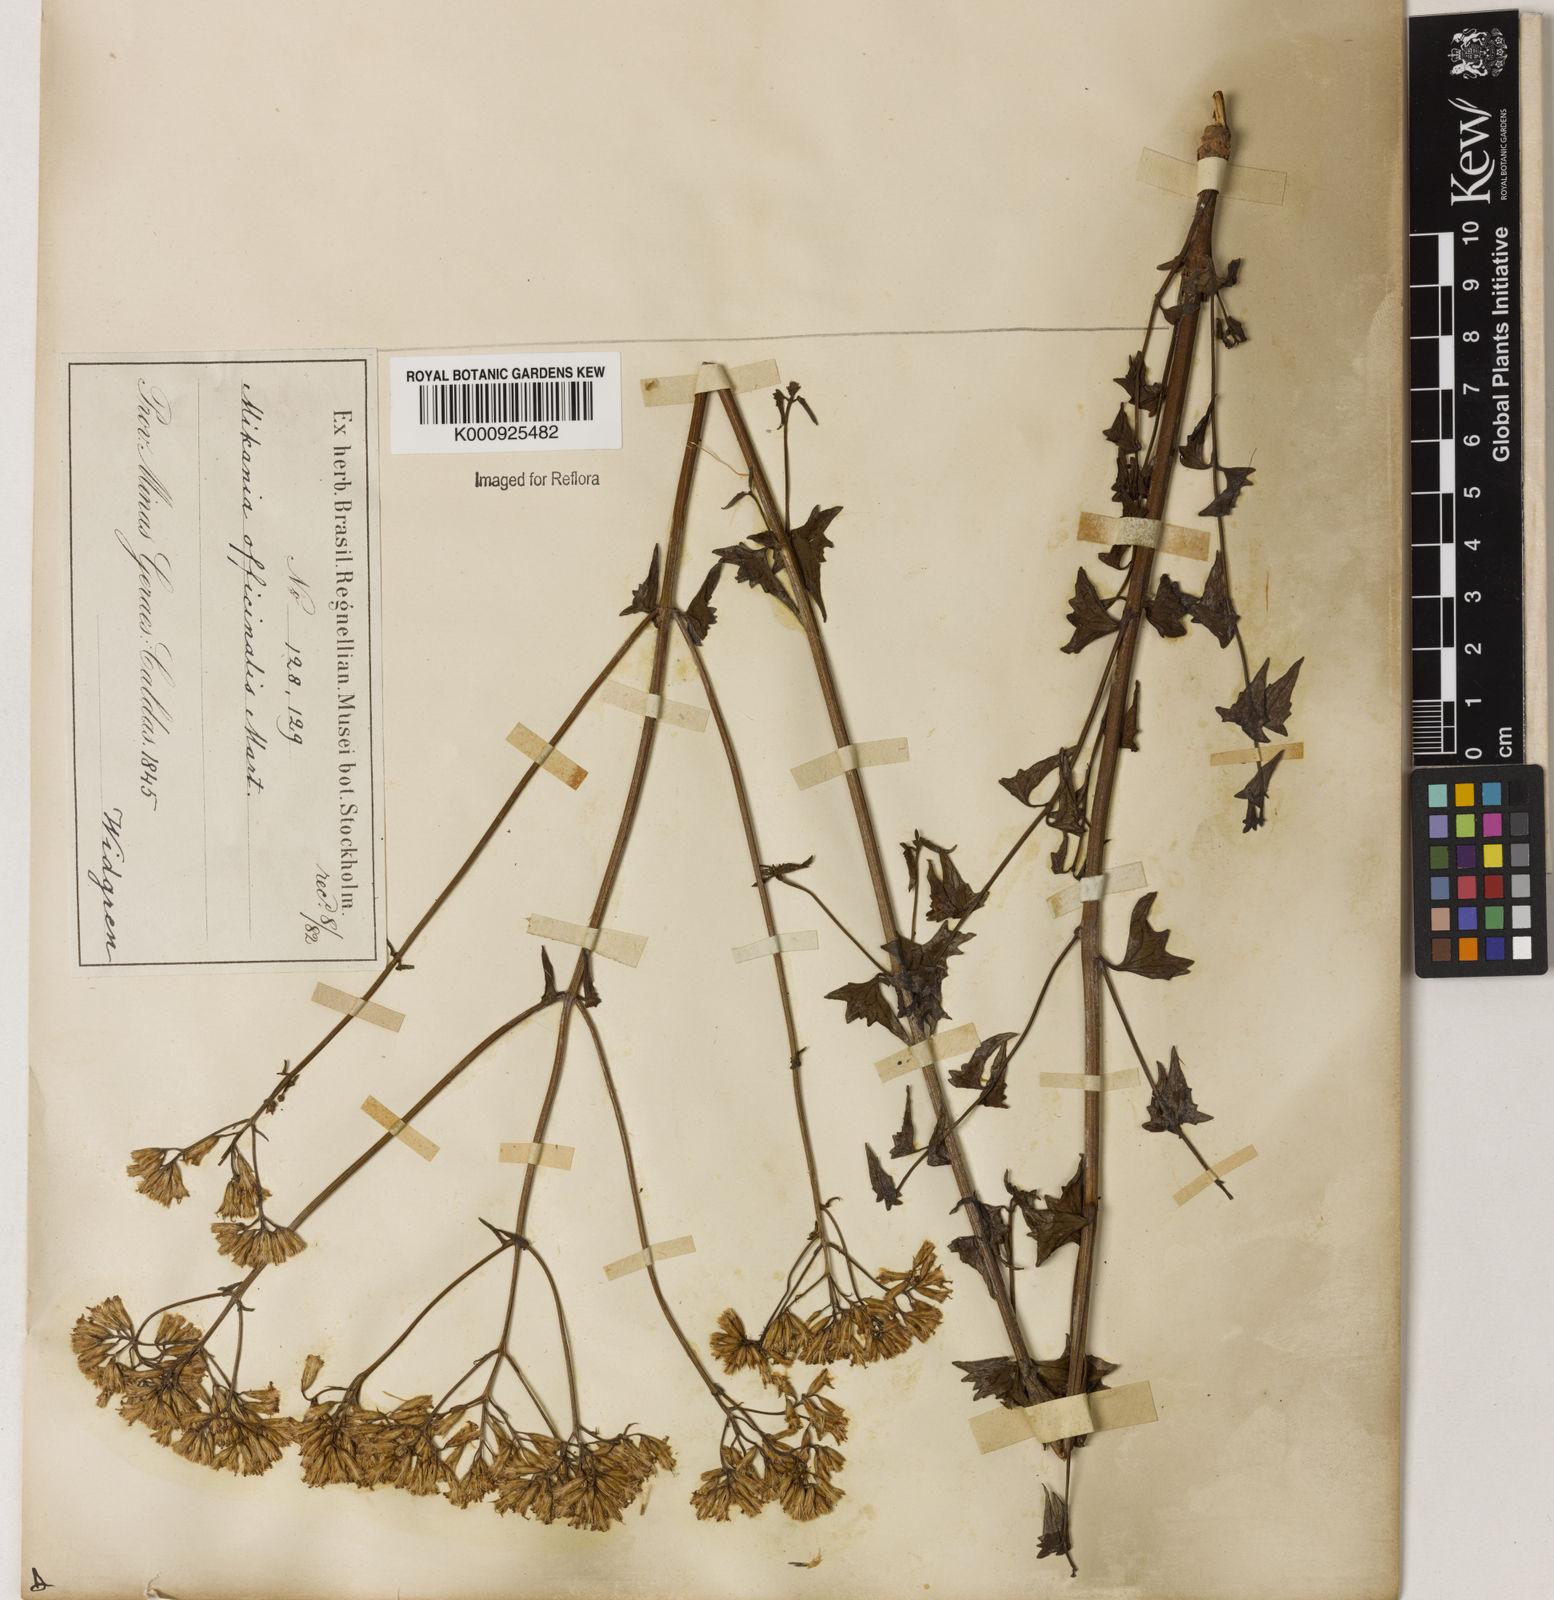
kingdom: Plantae
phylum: Tracheophyta
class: Magnoliopsida
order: Asterales
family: Asteraceae
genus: Mikania
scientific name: Mikania officinalis
